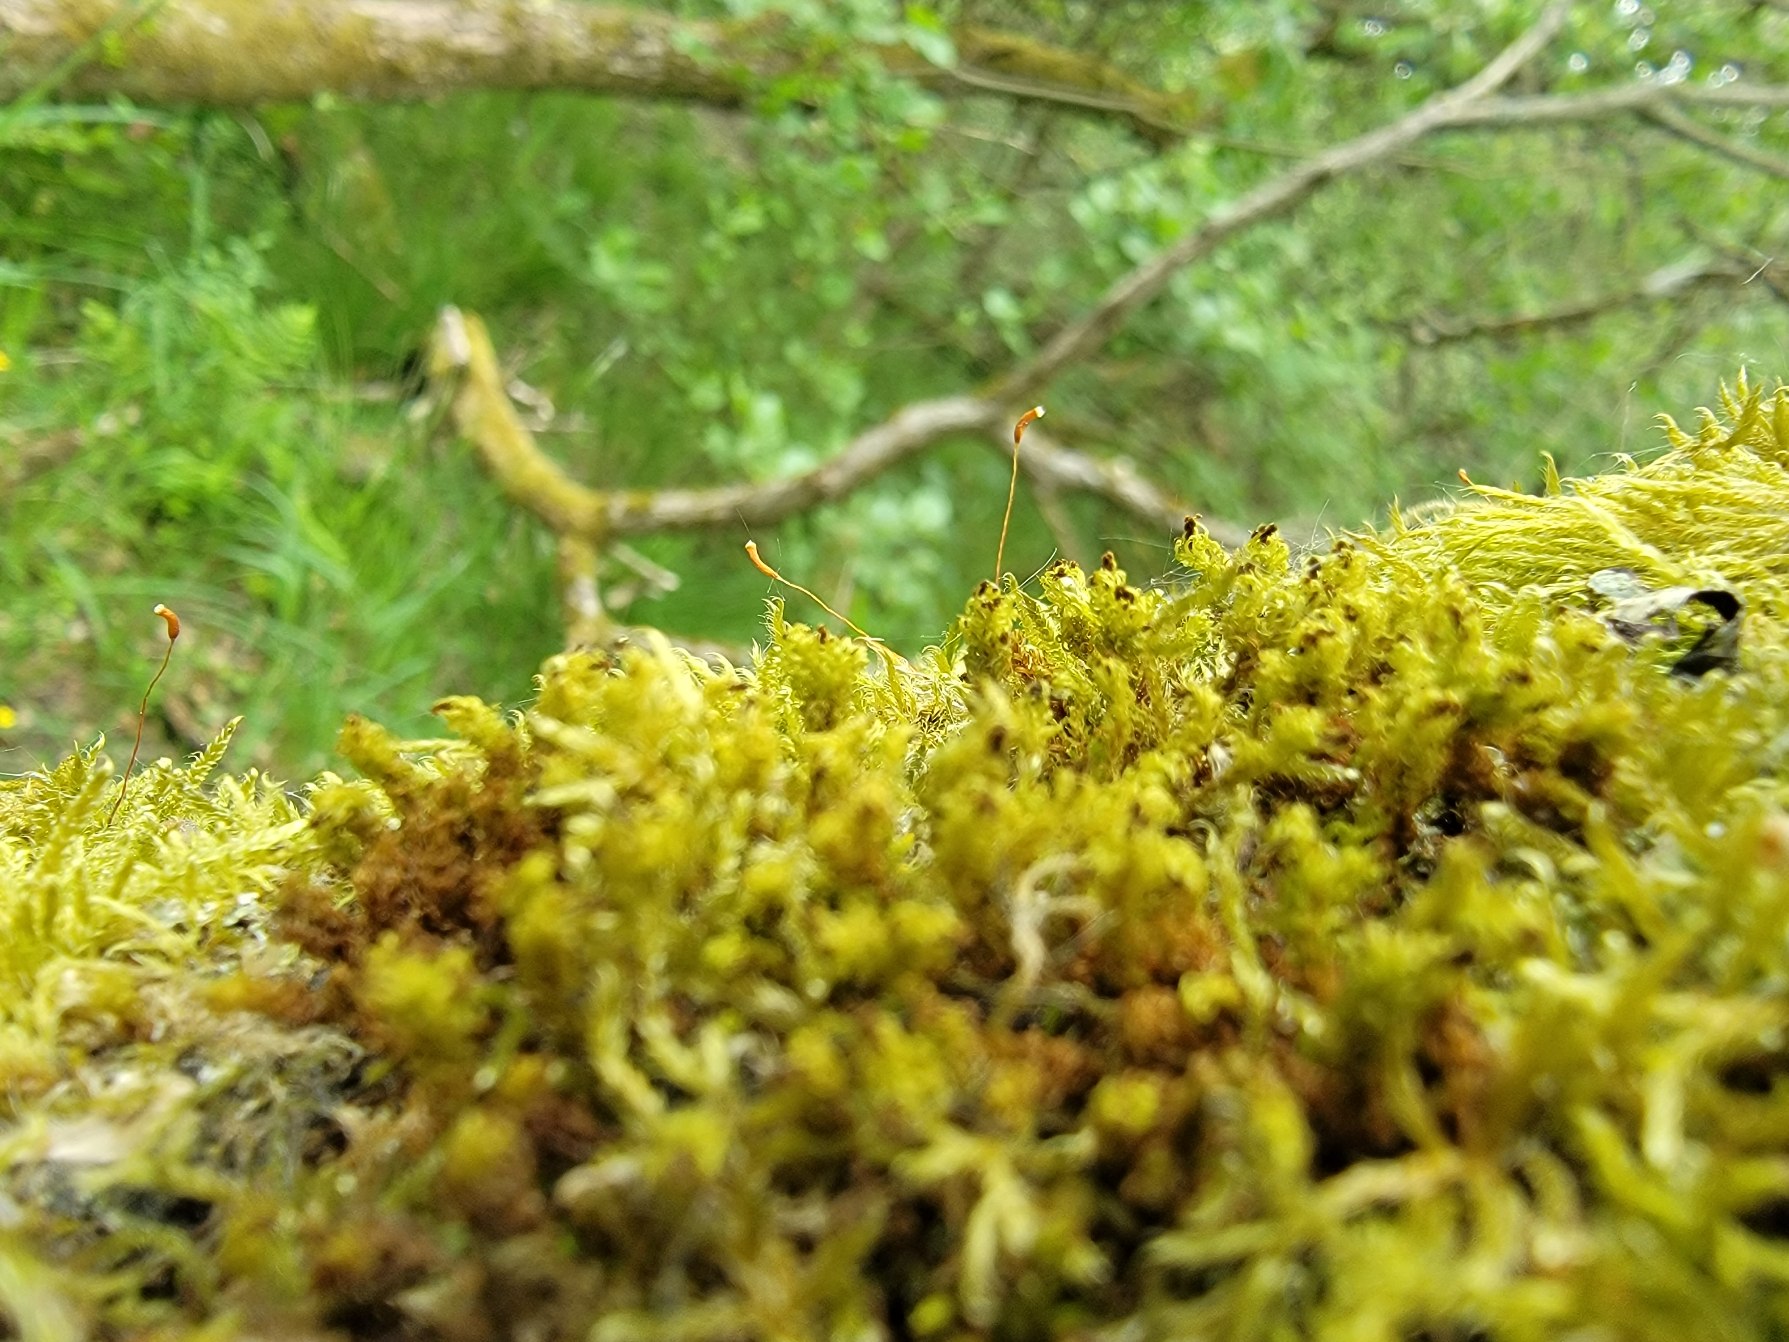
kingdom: Plantae
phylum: Bryophyta
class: Bryopsida
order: Orthotrichales
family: Orthotrichaceae
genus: Plenogemma
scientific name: Plenogemma phyllantha
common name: Stor låddenhætte
